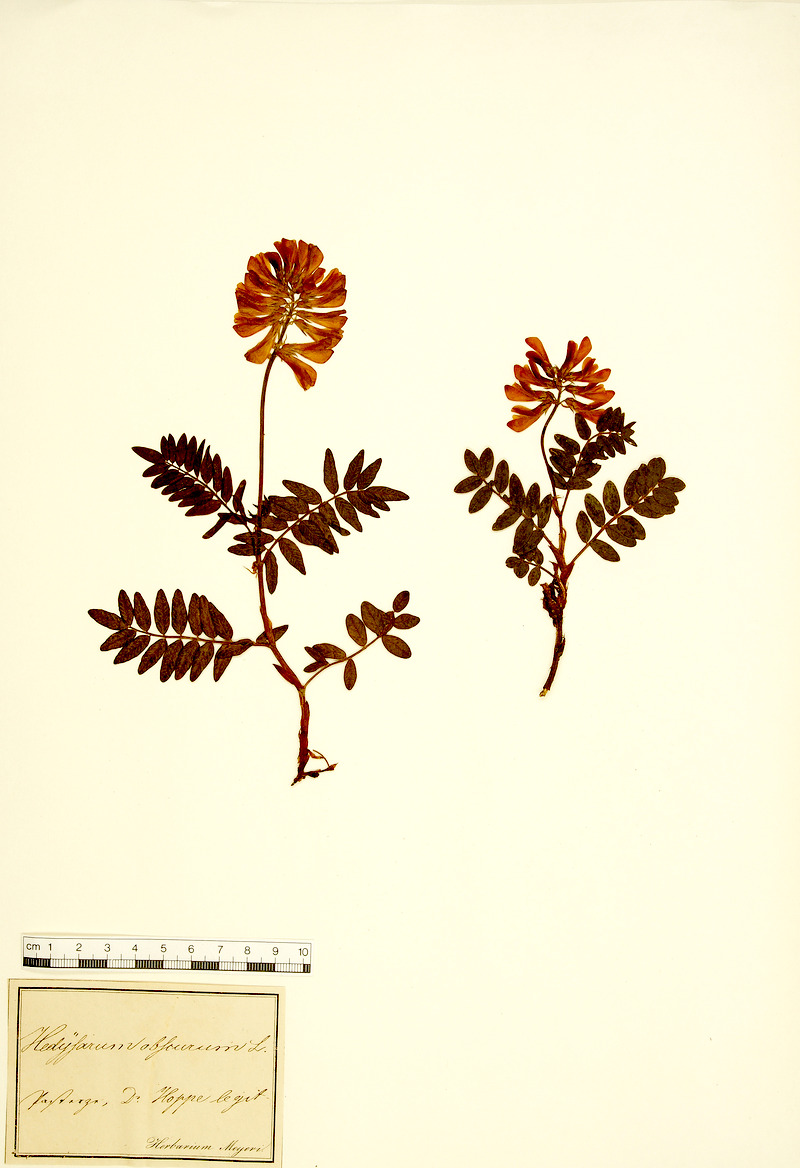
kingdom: Plantae
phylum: Tracheophyta
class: Magnoliopsida
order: Fabales
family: Fabaceae
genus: Hedysarum
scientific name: Hedysarum hedysaroides
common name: Alpine french-honeysuckle
